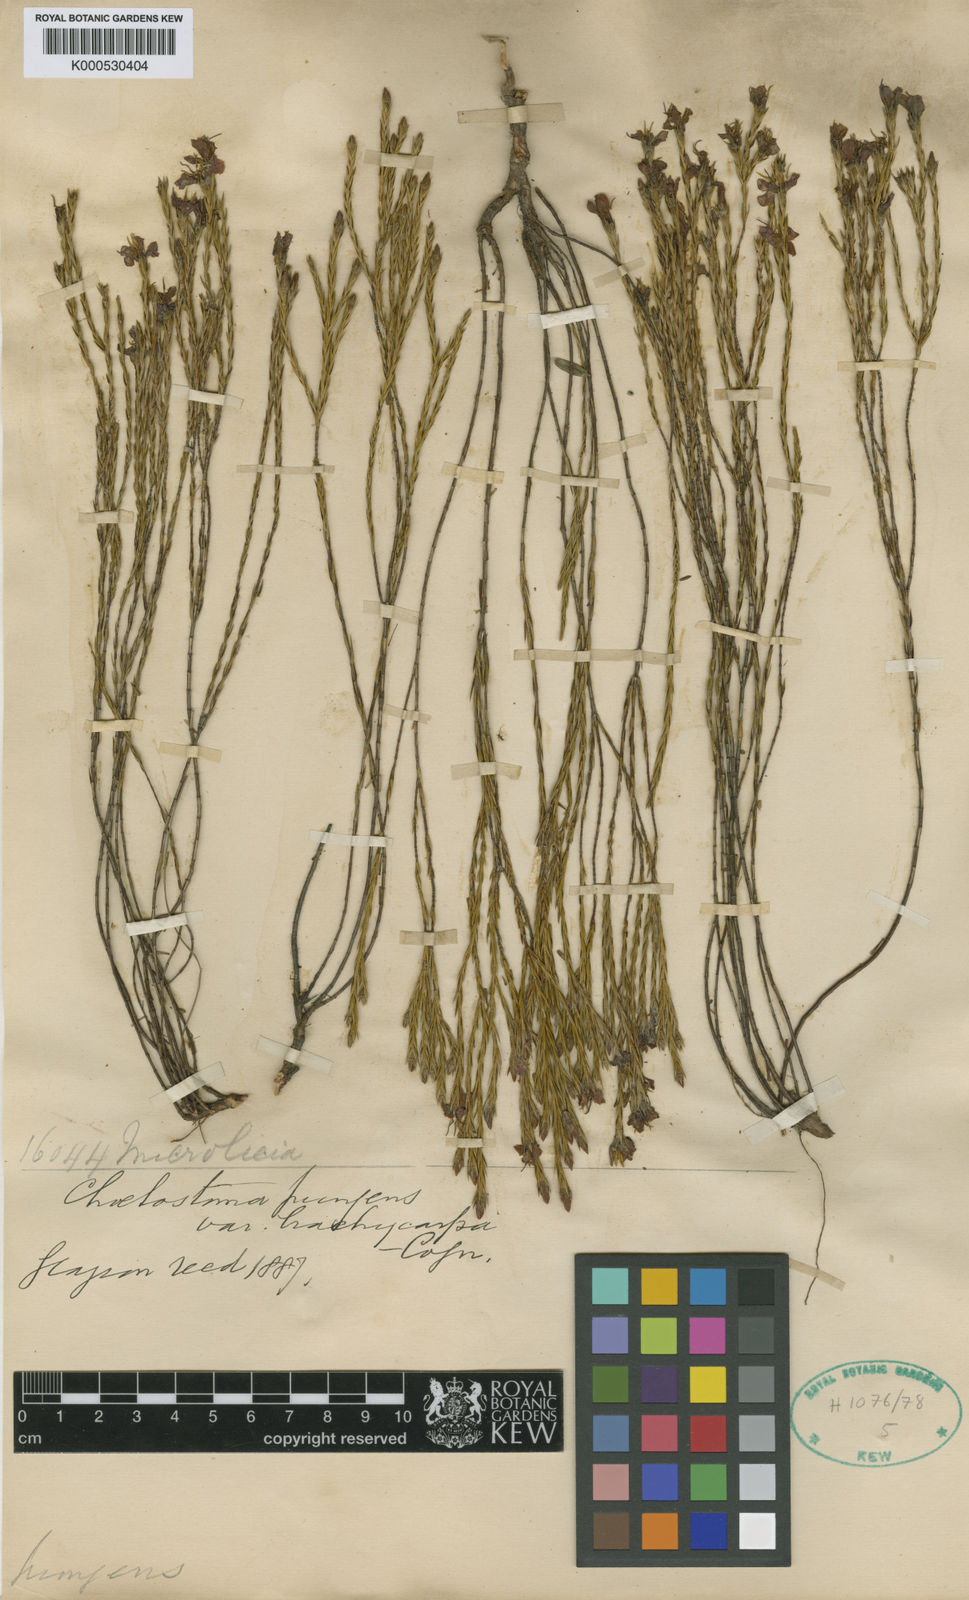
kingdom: Plantae
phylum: Tracheophyta
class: Magnoliopsida
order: Myrtales
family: Melastomataceae
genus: Microlicia
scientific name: Microlicia armata
